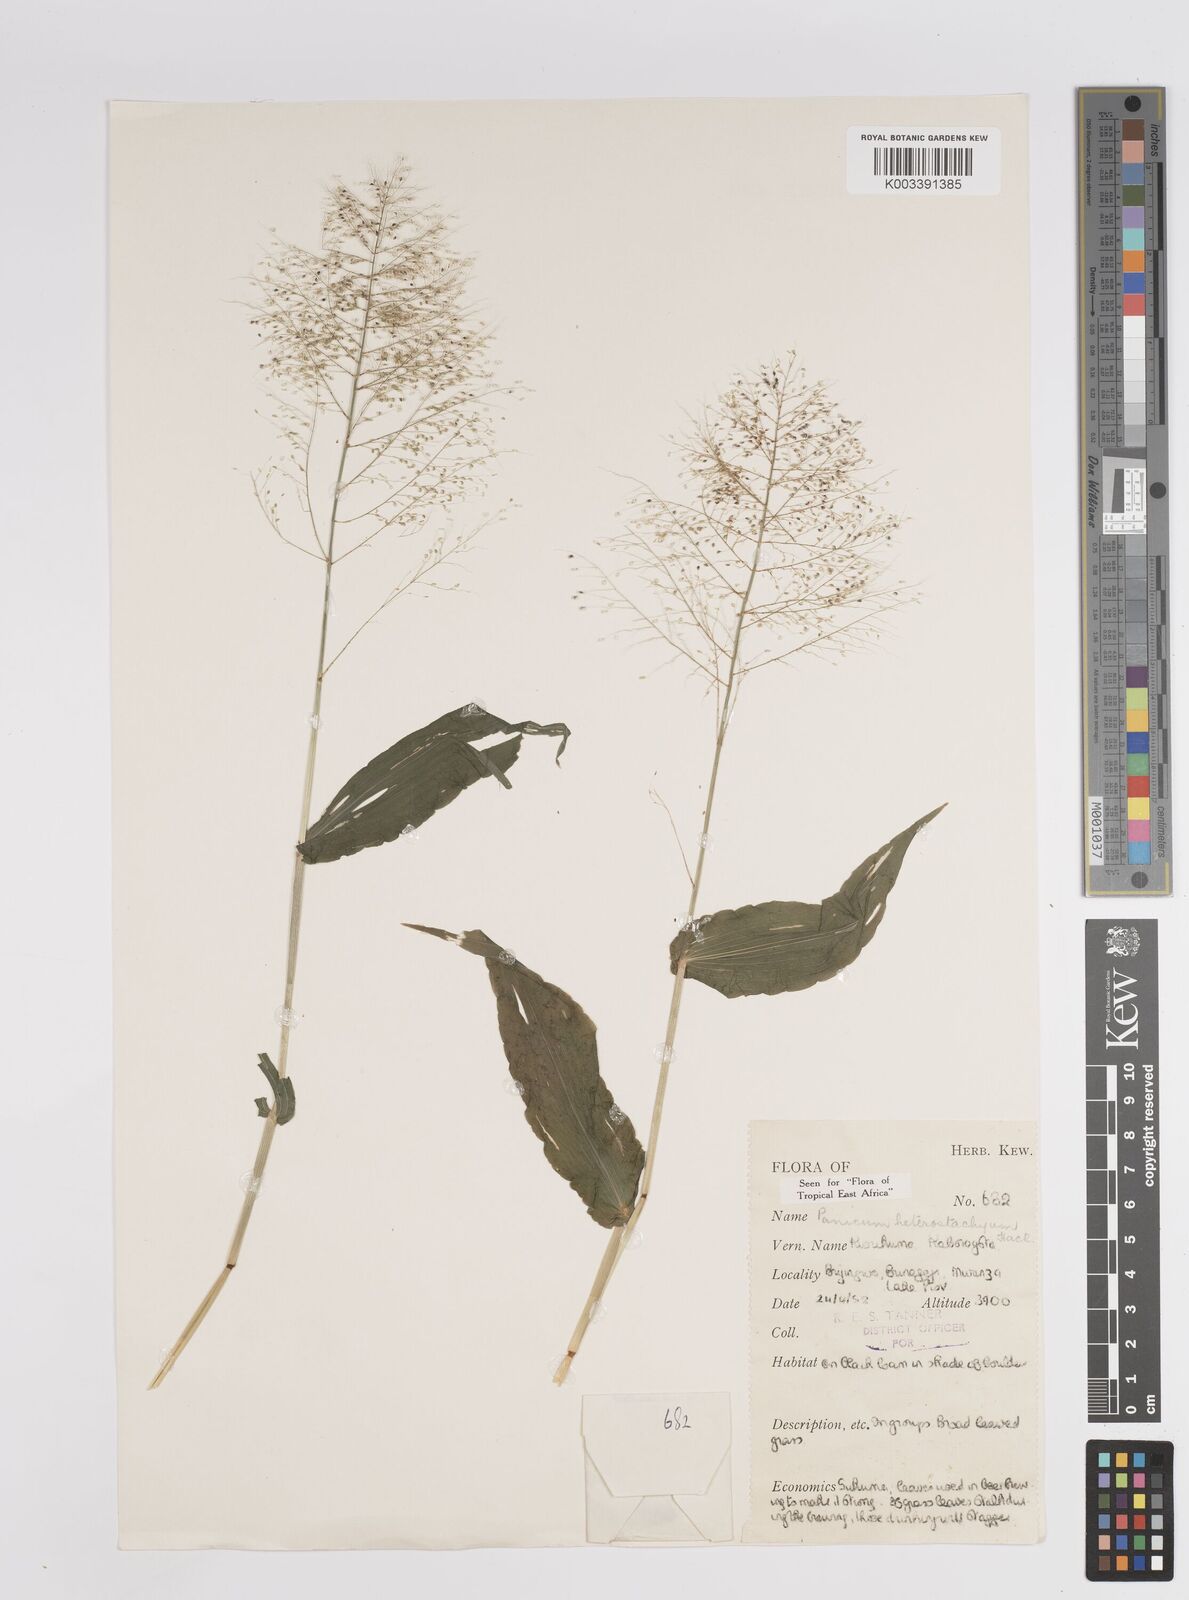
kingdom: Plantae
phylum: Tracheophyta
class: Liliopsida
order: Poales
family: Poaceae
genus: Panicum
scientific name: Panicum hirtum
